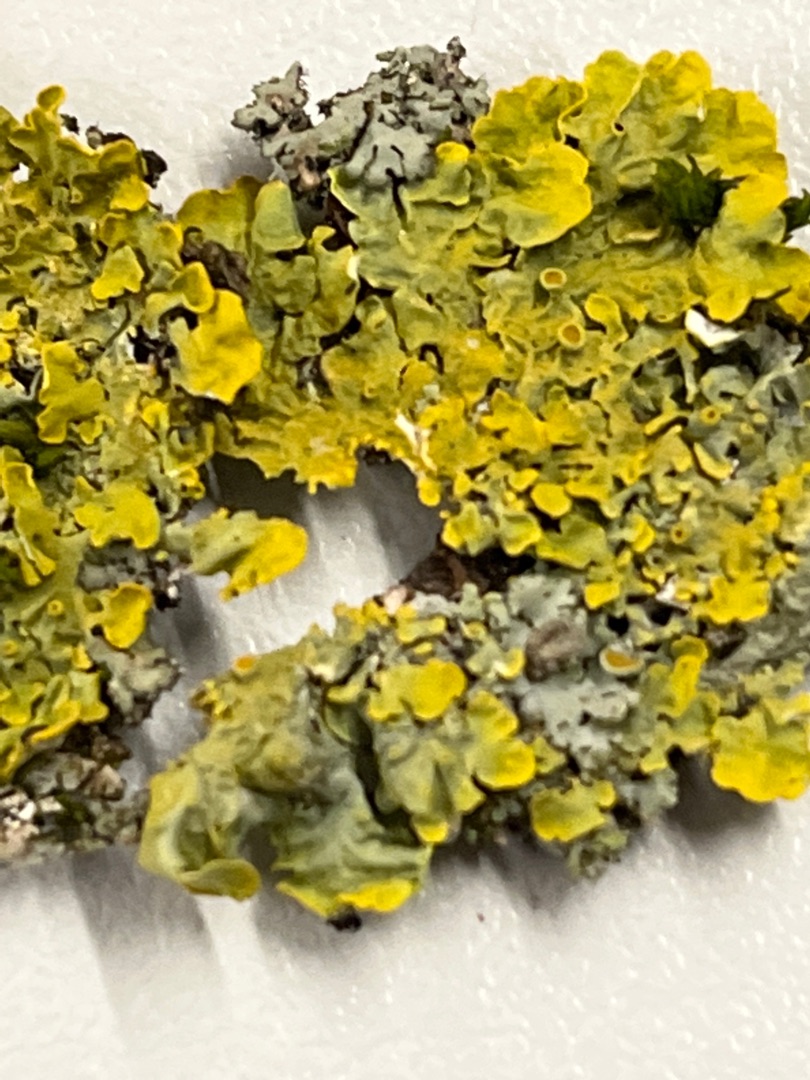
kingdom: Fungi
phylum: Ascomycota
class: Lecanoromycetes
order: Teloschistales
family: Teloschistaceae
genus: Xanthoria
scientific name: Xanthoria parietina
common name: Almindelig væggelav
